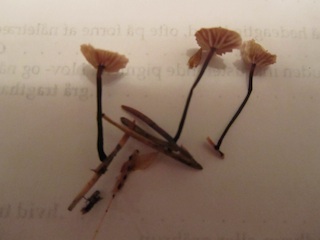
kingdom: Fungi
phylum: Basidiomycota
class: Agaricomycetes
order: Agaricales
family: Omphalotaceae
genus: Gymnopus
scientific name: Gymnopus androsaceus
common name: trådstokket fladhat
